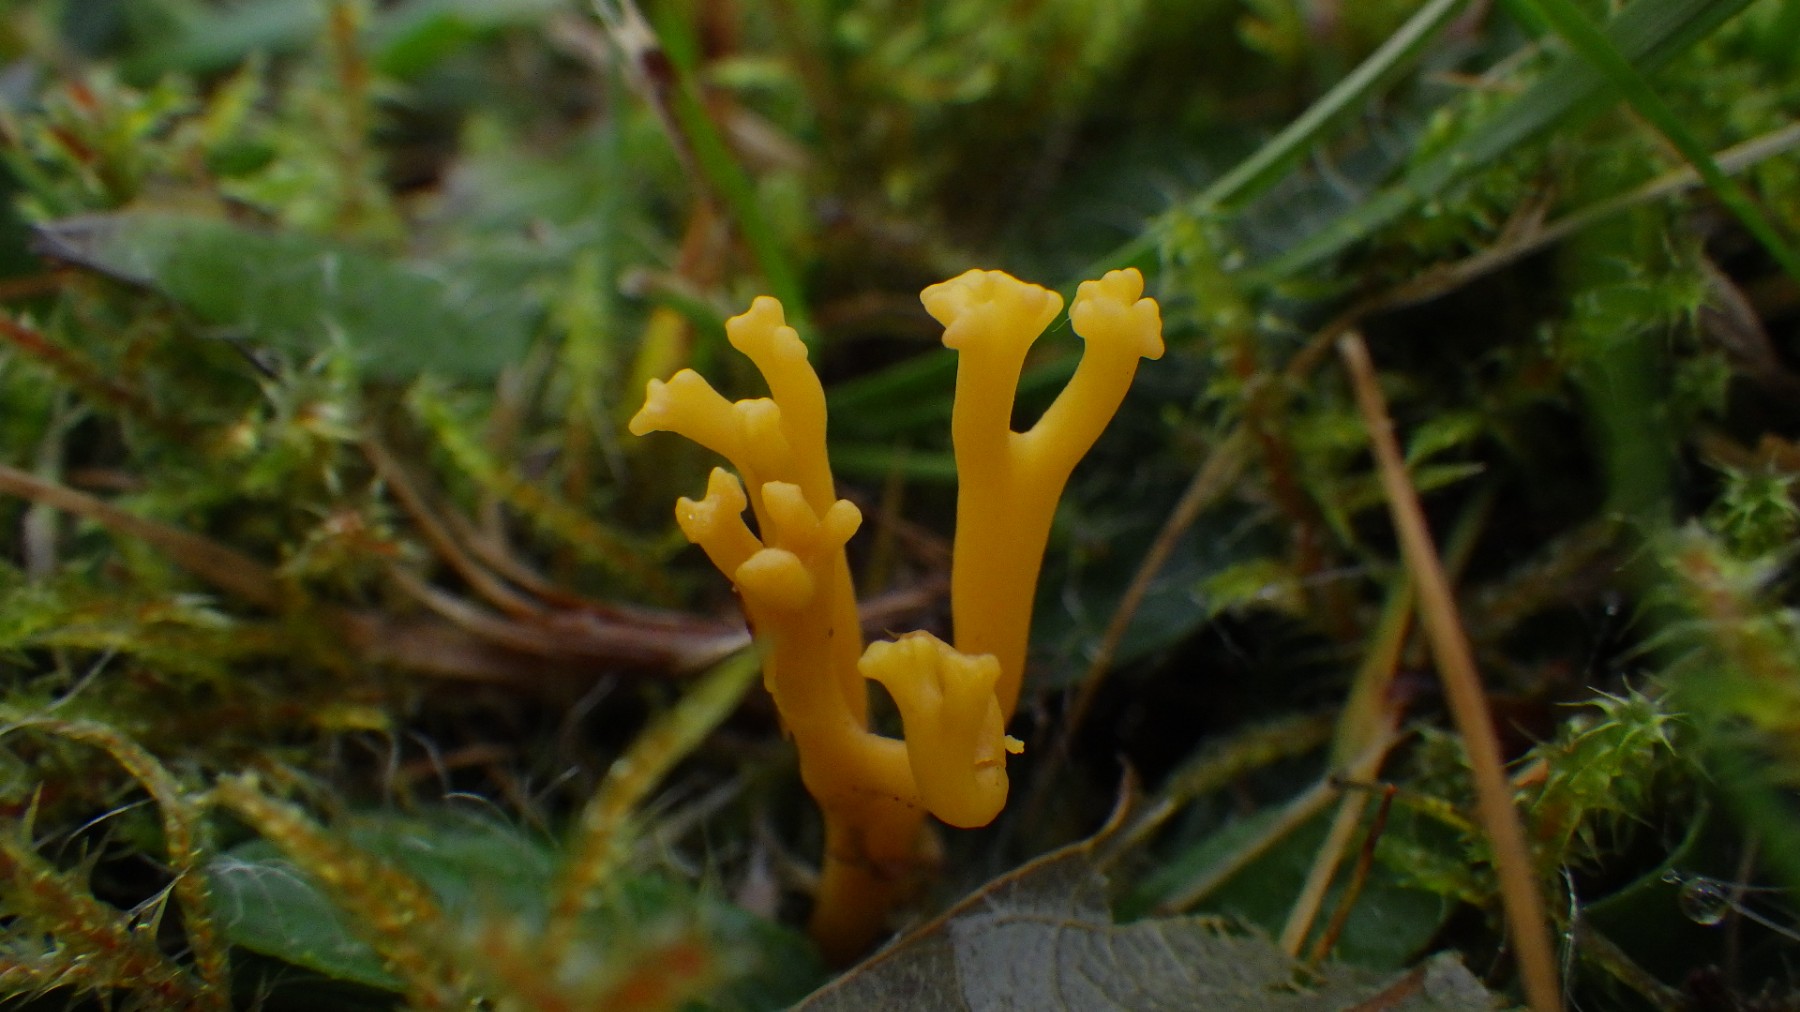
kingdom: Fungi
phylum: Basidiomycota
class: Agaricomycetes
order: Agaricales
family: Clavariaceae
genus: Clavulinopsis
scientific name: Clavulinopsis corniculata
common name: eng-køllesvamp
